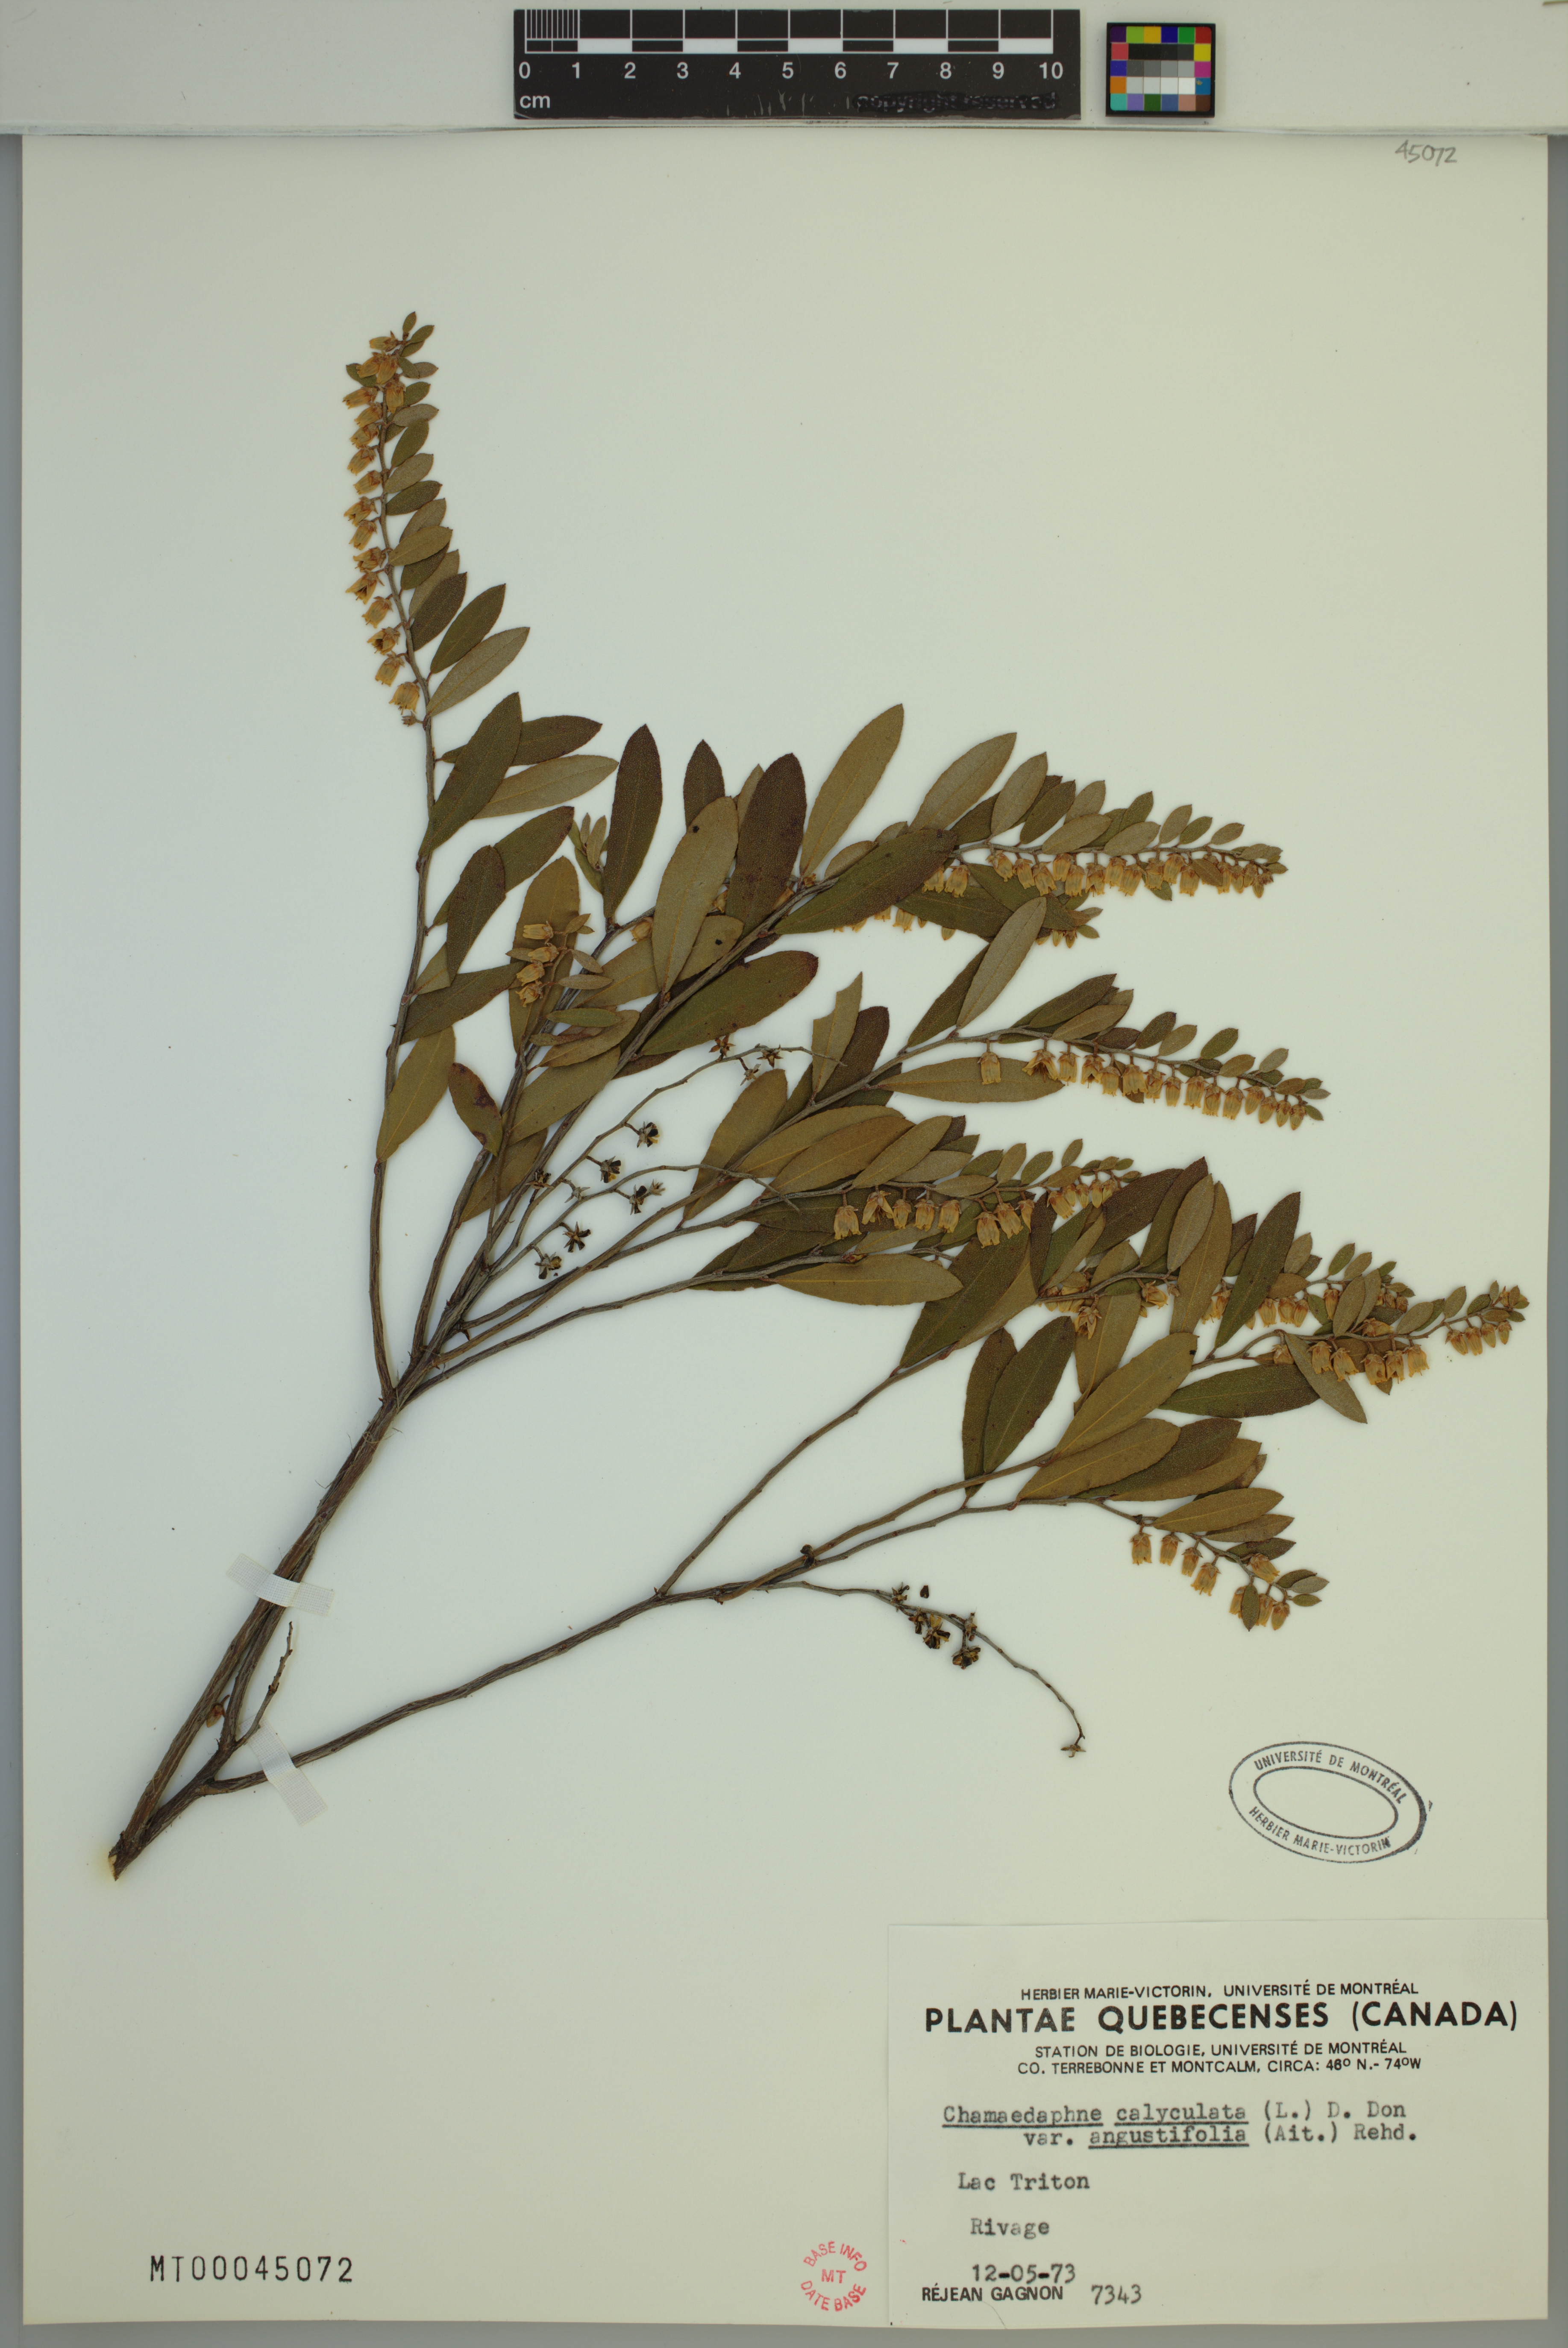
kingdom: Plantae
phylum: Tracheophyta
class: Magnoliopsida
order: Ericales
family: Ericaceae
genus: Chamaedaphne
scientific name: Chamaedaphne calyculata
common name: Leatherleaf
